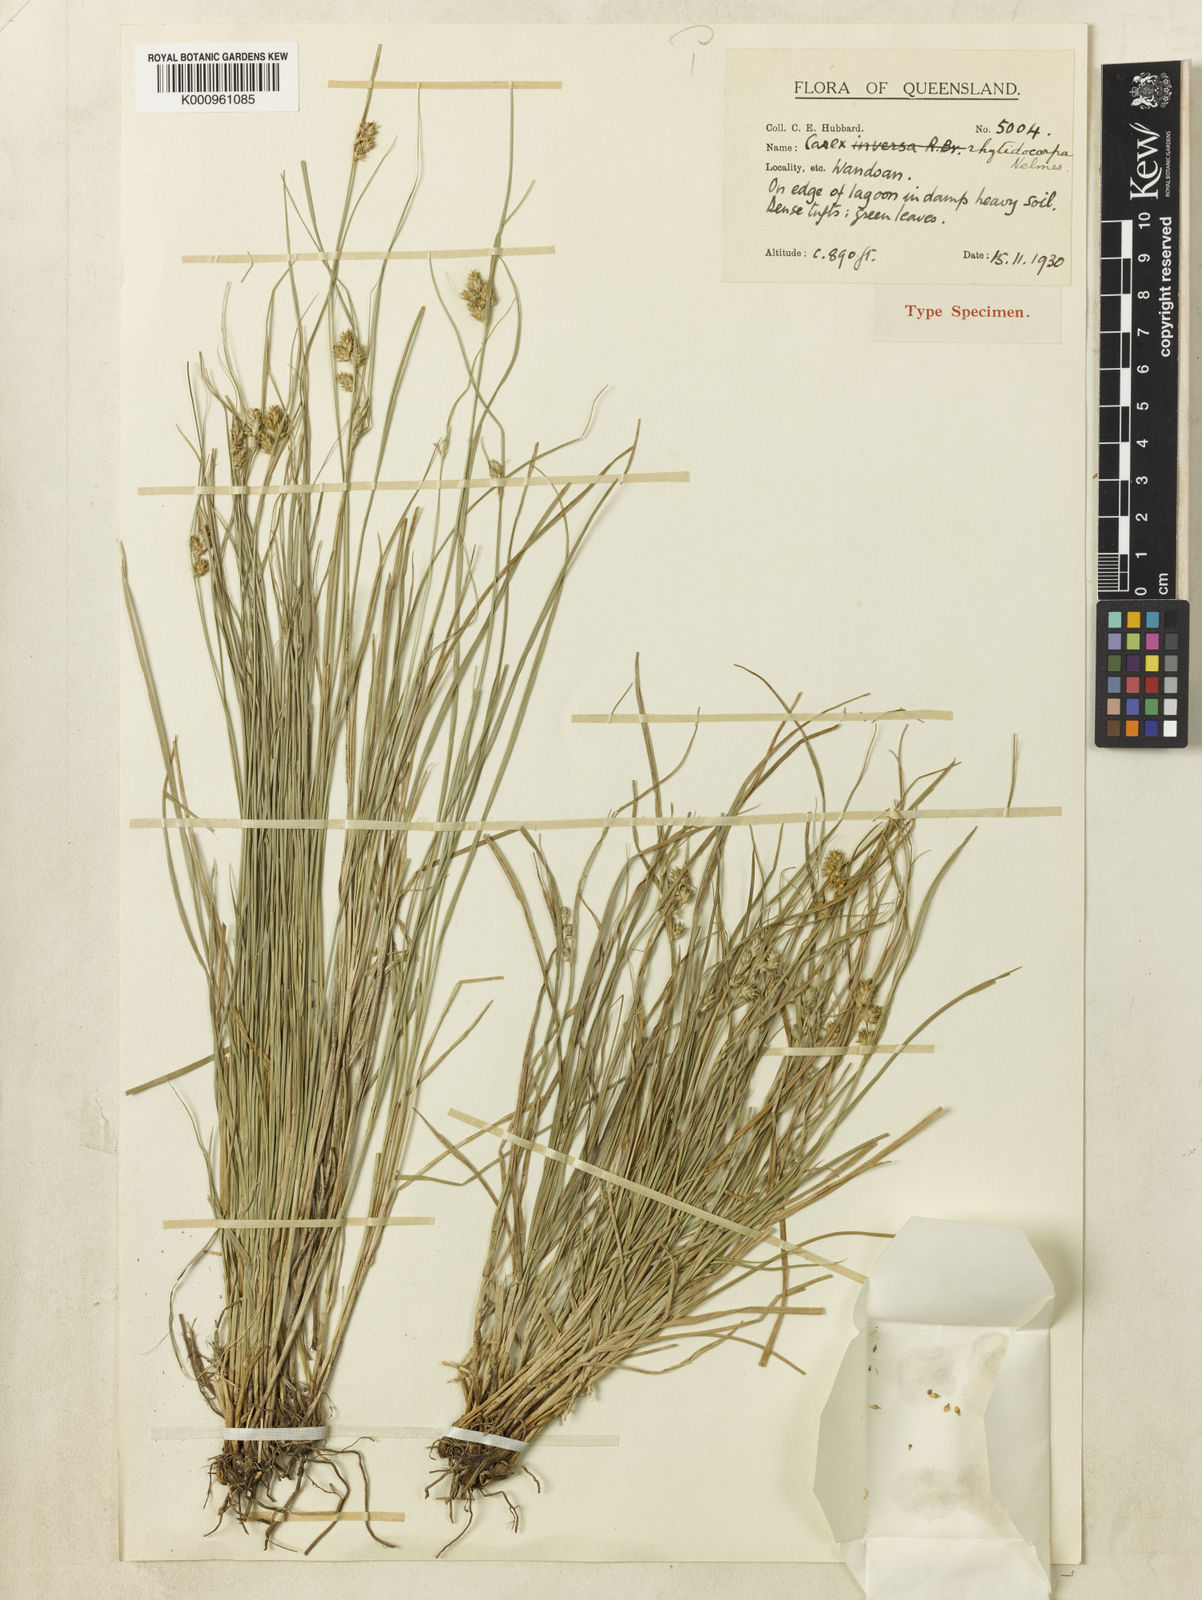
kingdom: Plantae
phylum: Tracheophyta
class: Liliopsida
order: Poales
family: Cyperaceae
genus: Carex
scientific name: Carex inversa
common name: Knob sedge
